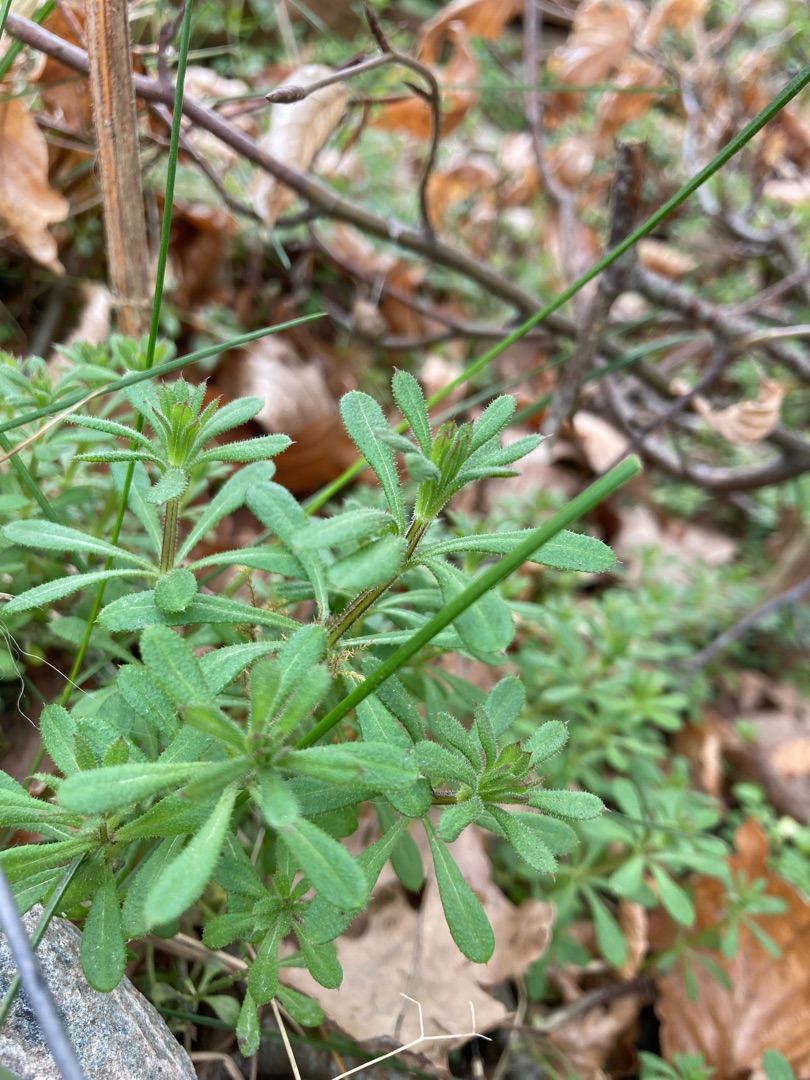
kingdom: Plantae
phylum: Tracheophyta
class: Magnoliopsida
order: Gentianales
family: Rubiaceae
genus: Galium
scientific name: Galium aparine
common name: Burre-snerre
